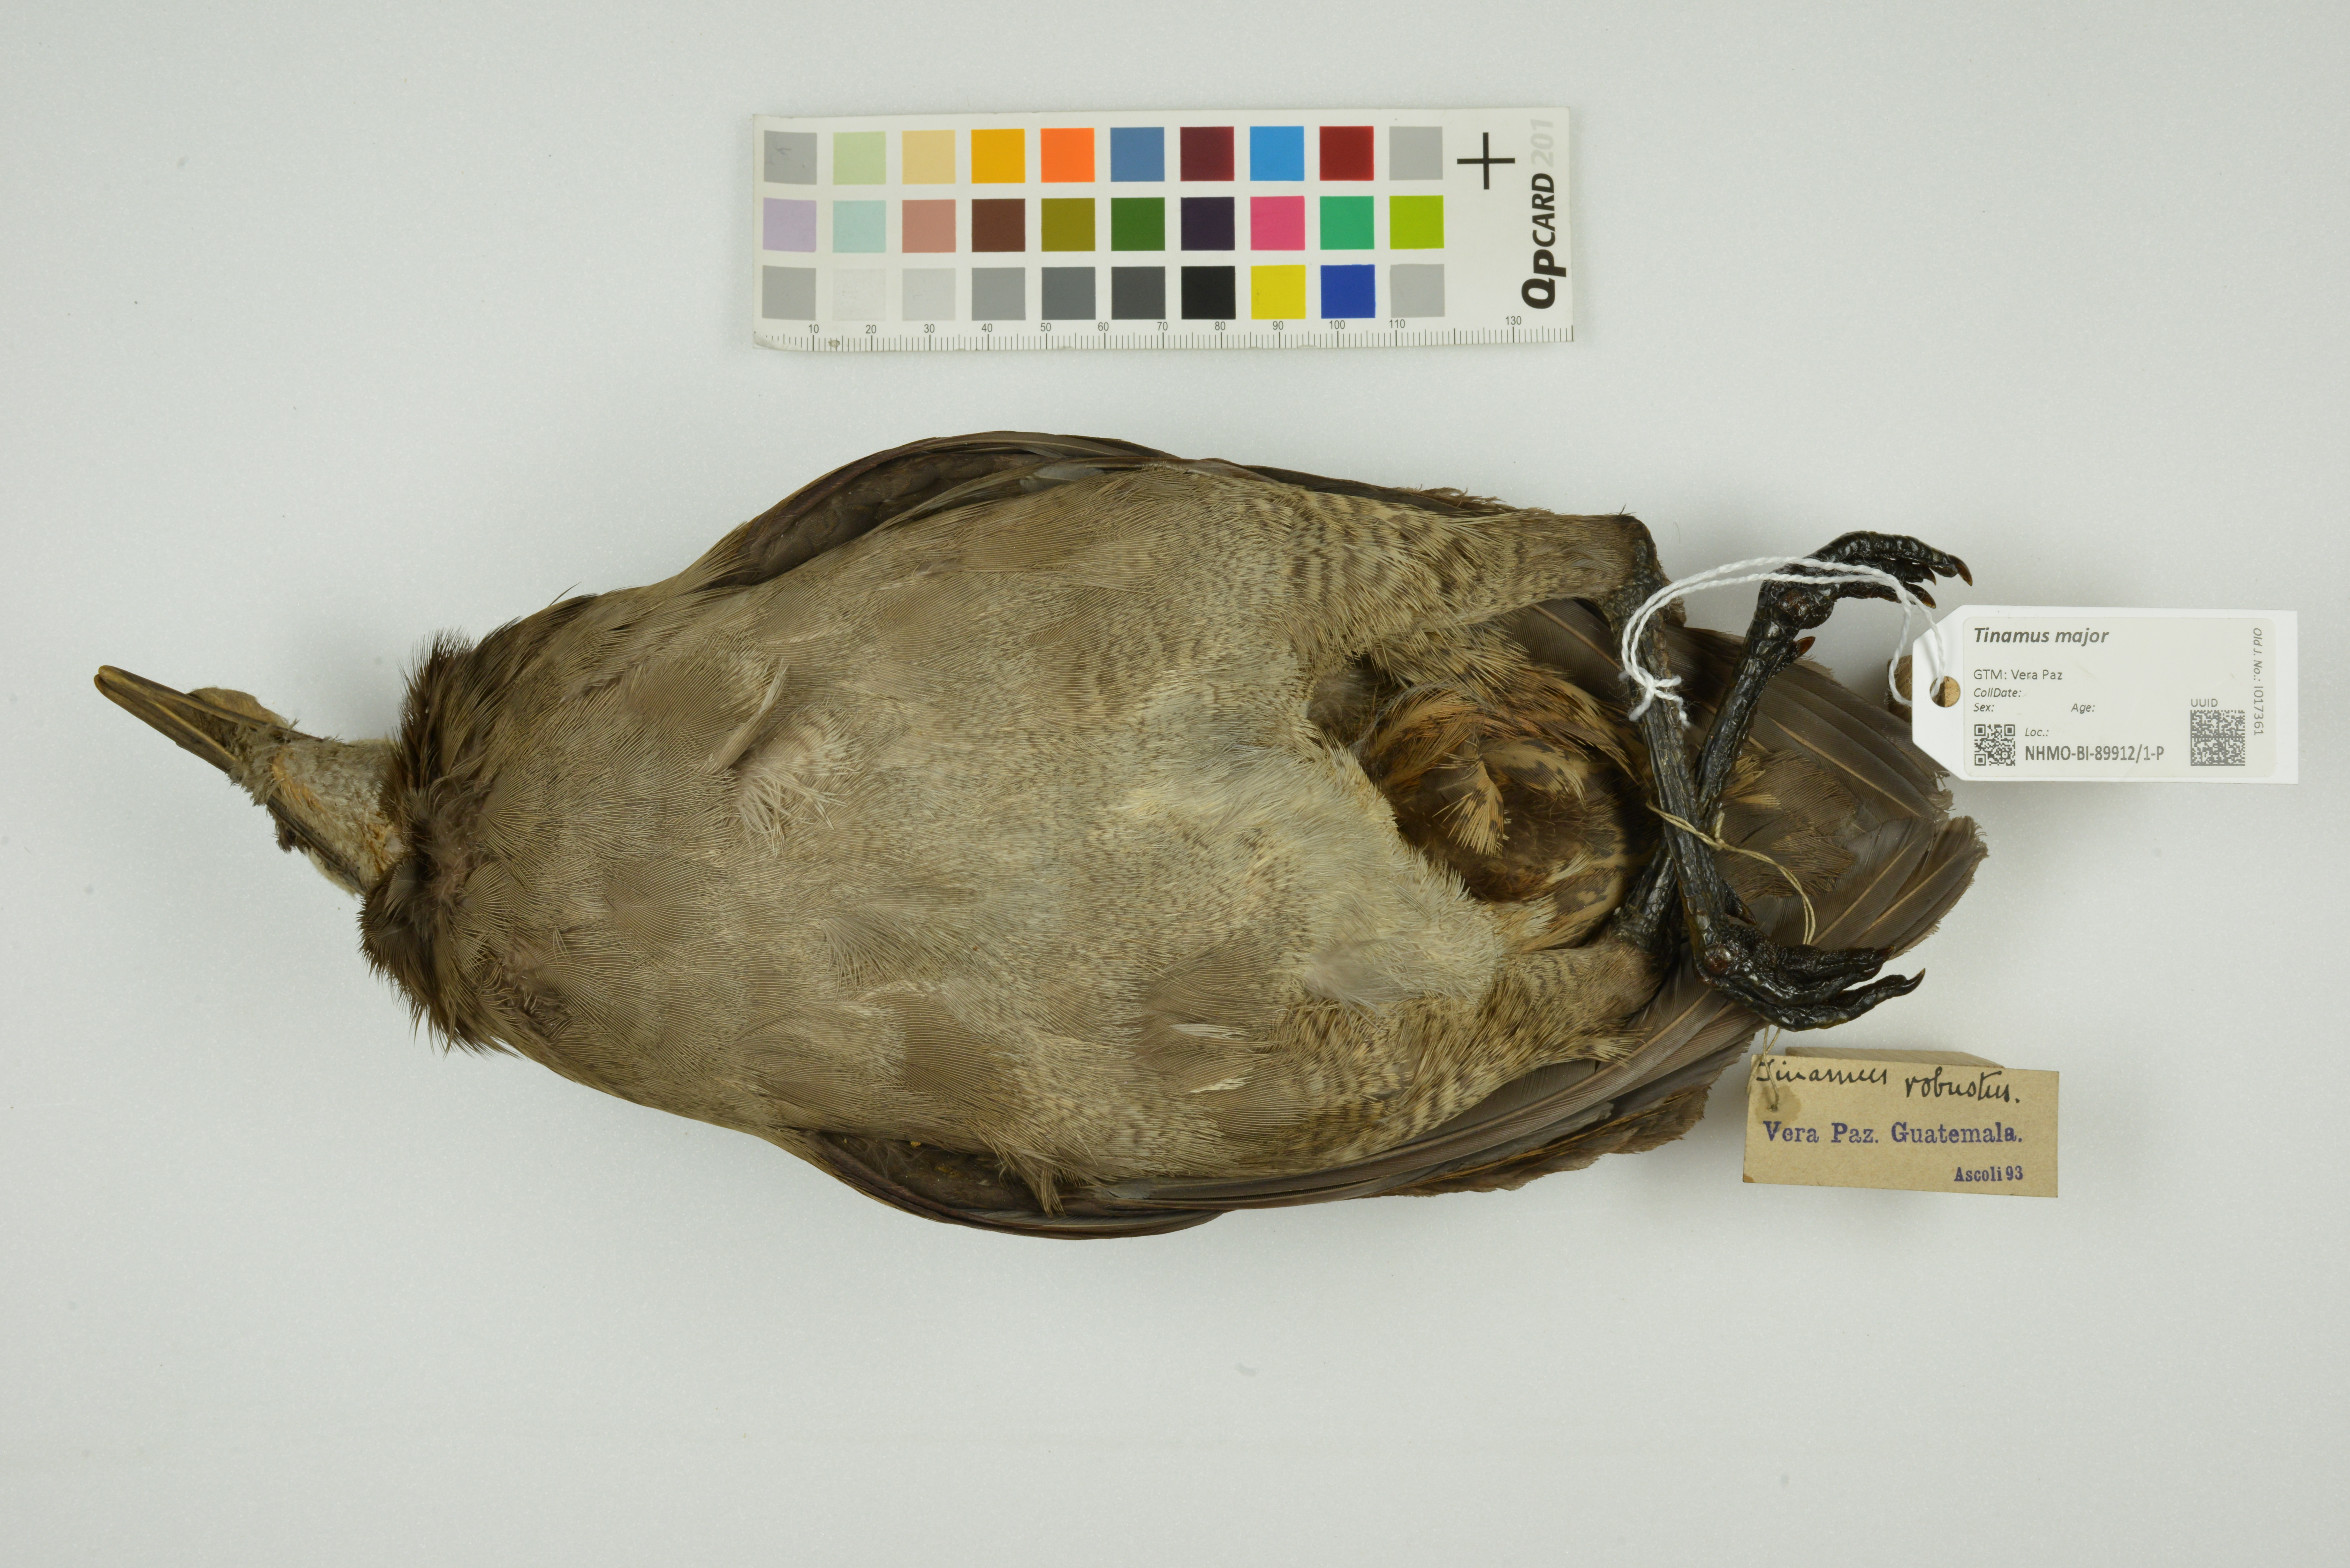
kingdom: Animalia
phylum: Chordata
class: Aves
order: Tinamiformes
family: Tinamidae
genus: Tinamus
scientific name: Tinamus major
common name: Great tinamou
